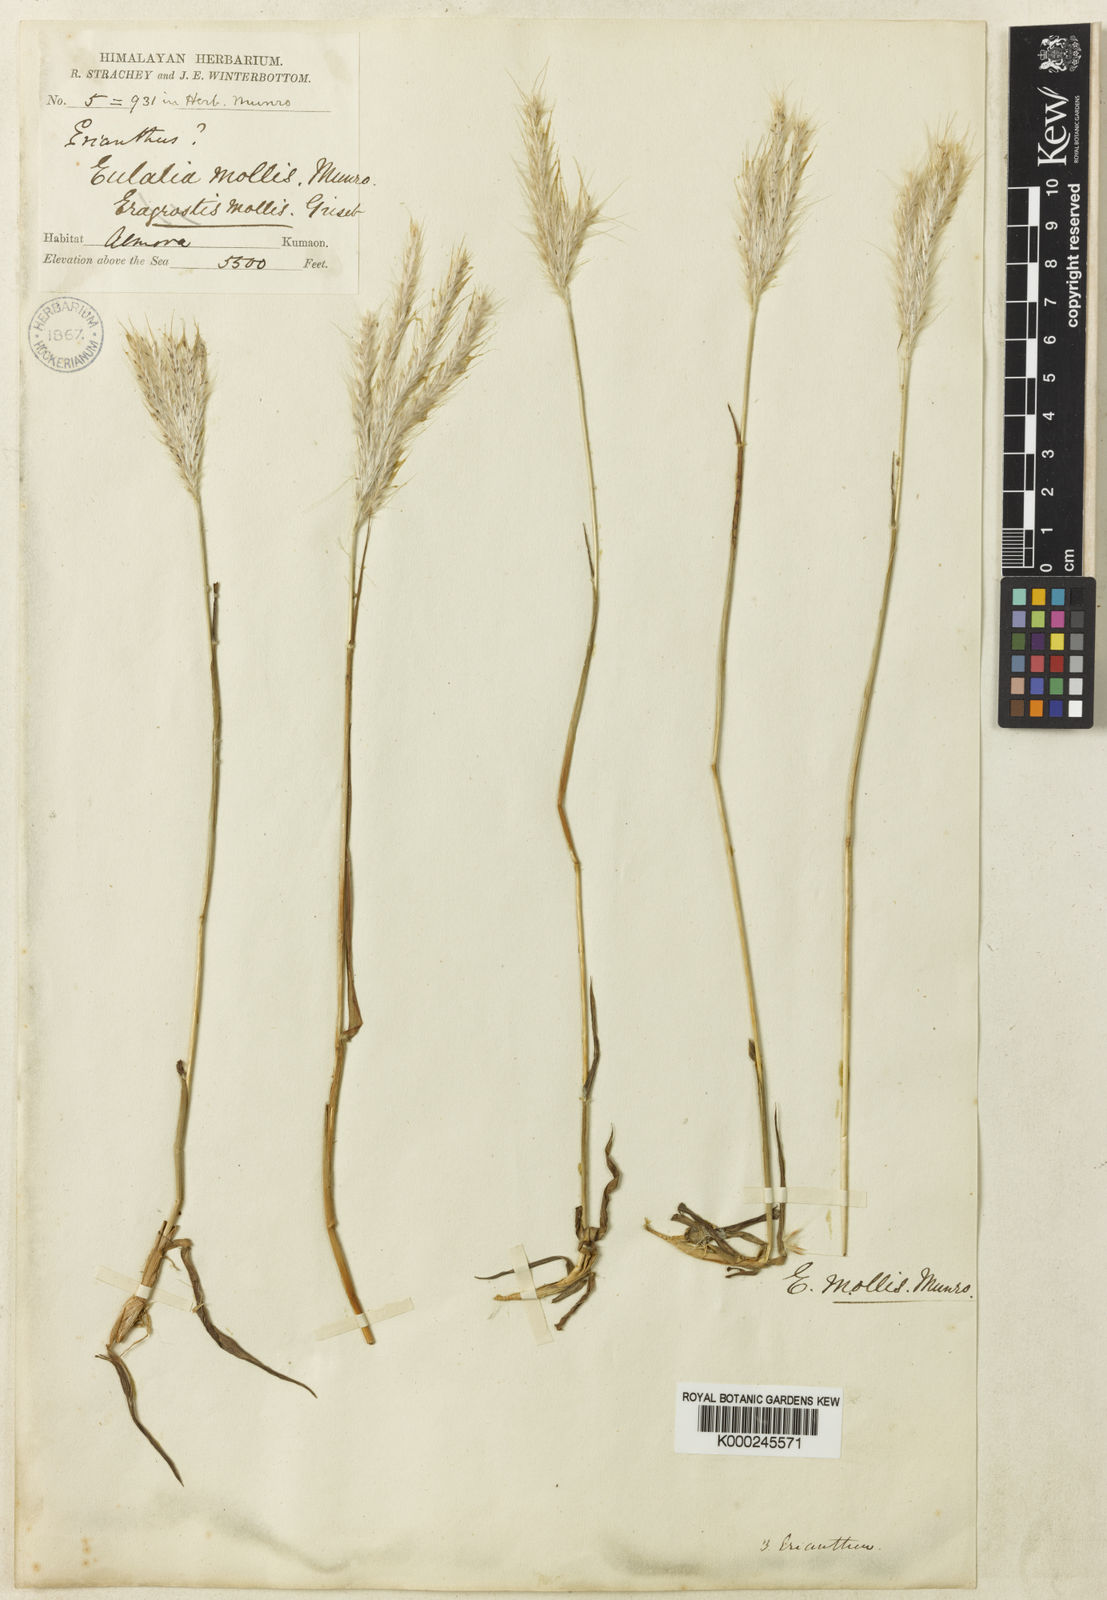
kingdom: Plantae
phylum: Tracheophyta
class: Liliopsida
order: Poales
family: Poaceae
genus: Eulalia
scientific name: Eulalia mollis
